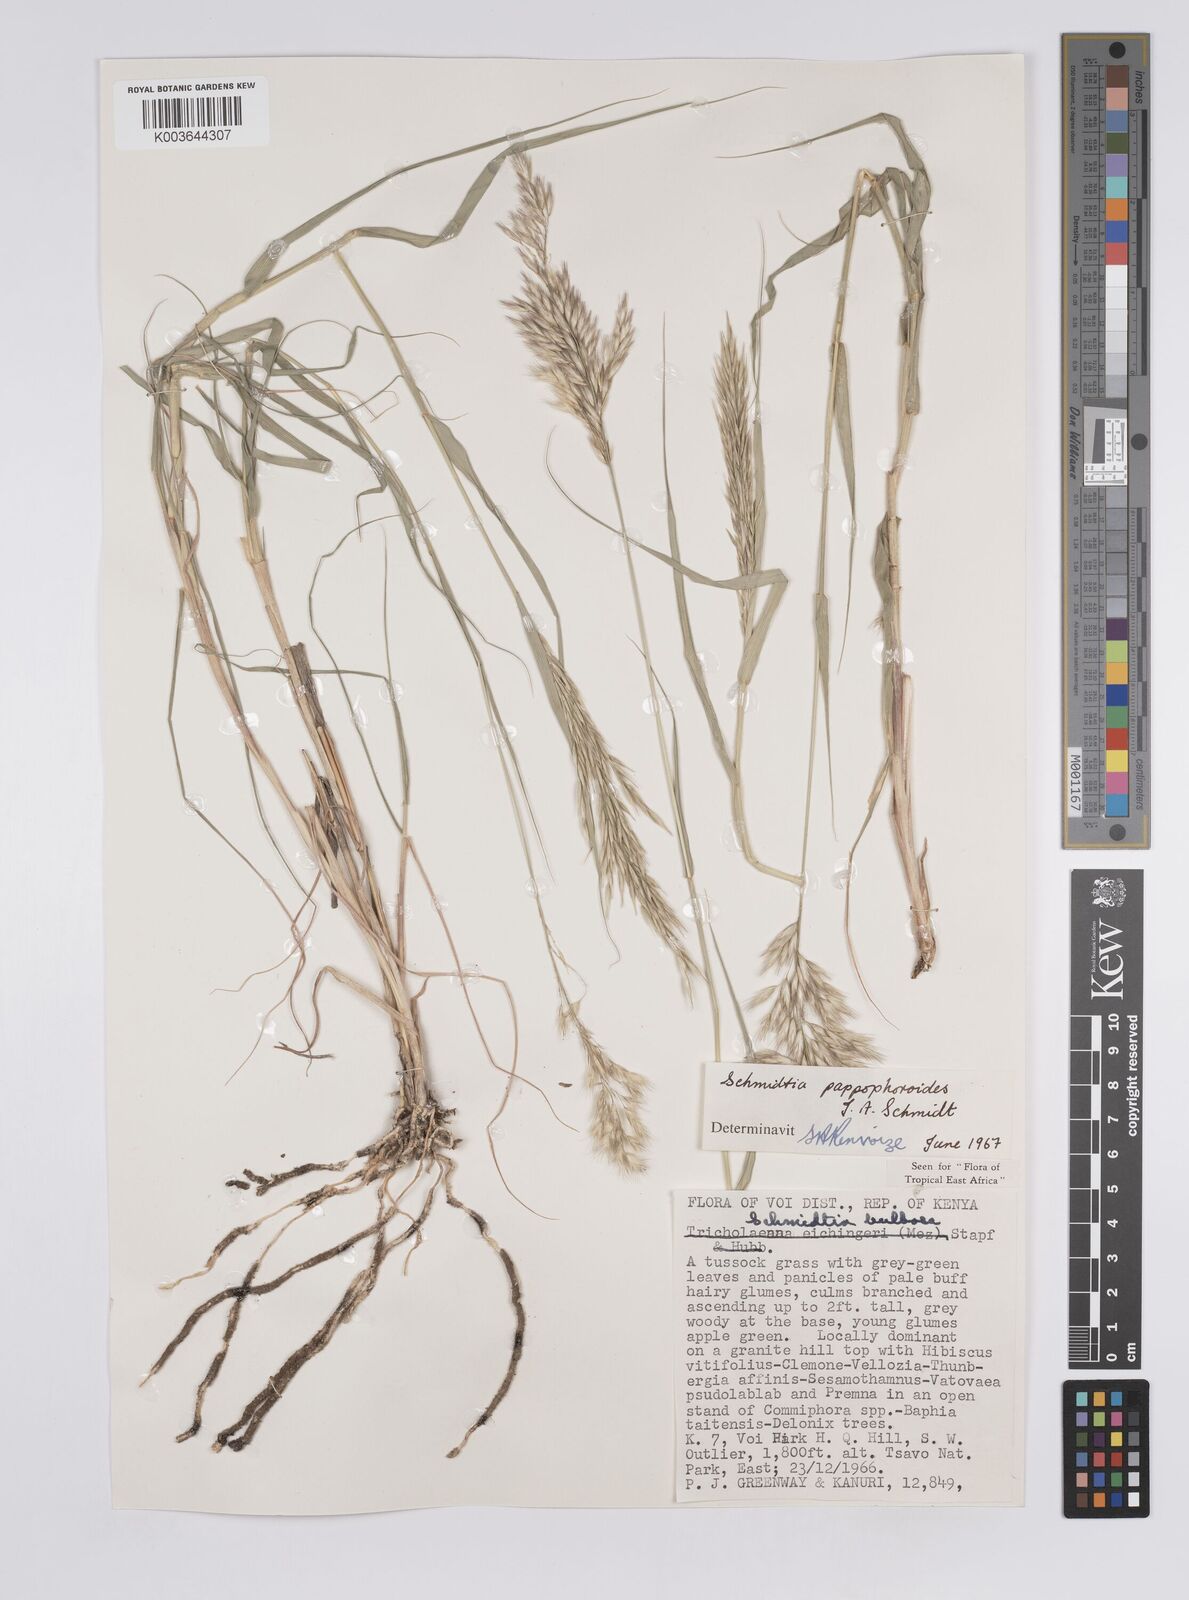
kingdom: Plantae
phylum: Tracheophyta
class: Liliopsida
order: Poales
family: Poaceae
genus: Schmidtia
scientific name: Schmidtia pappophoroides
